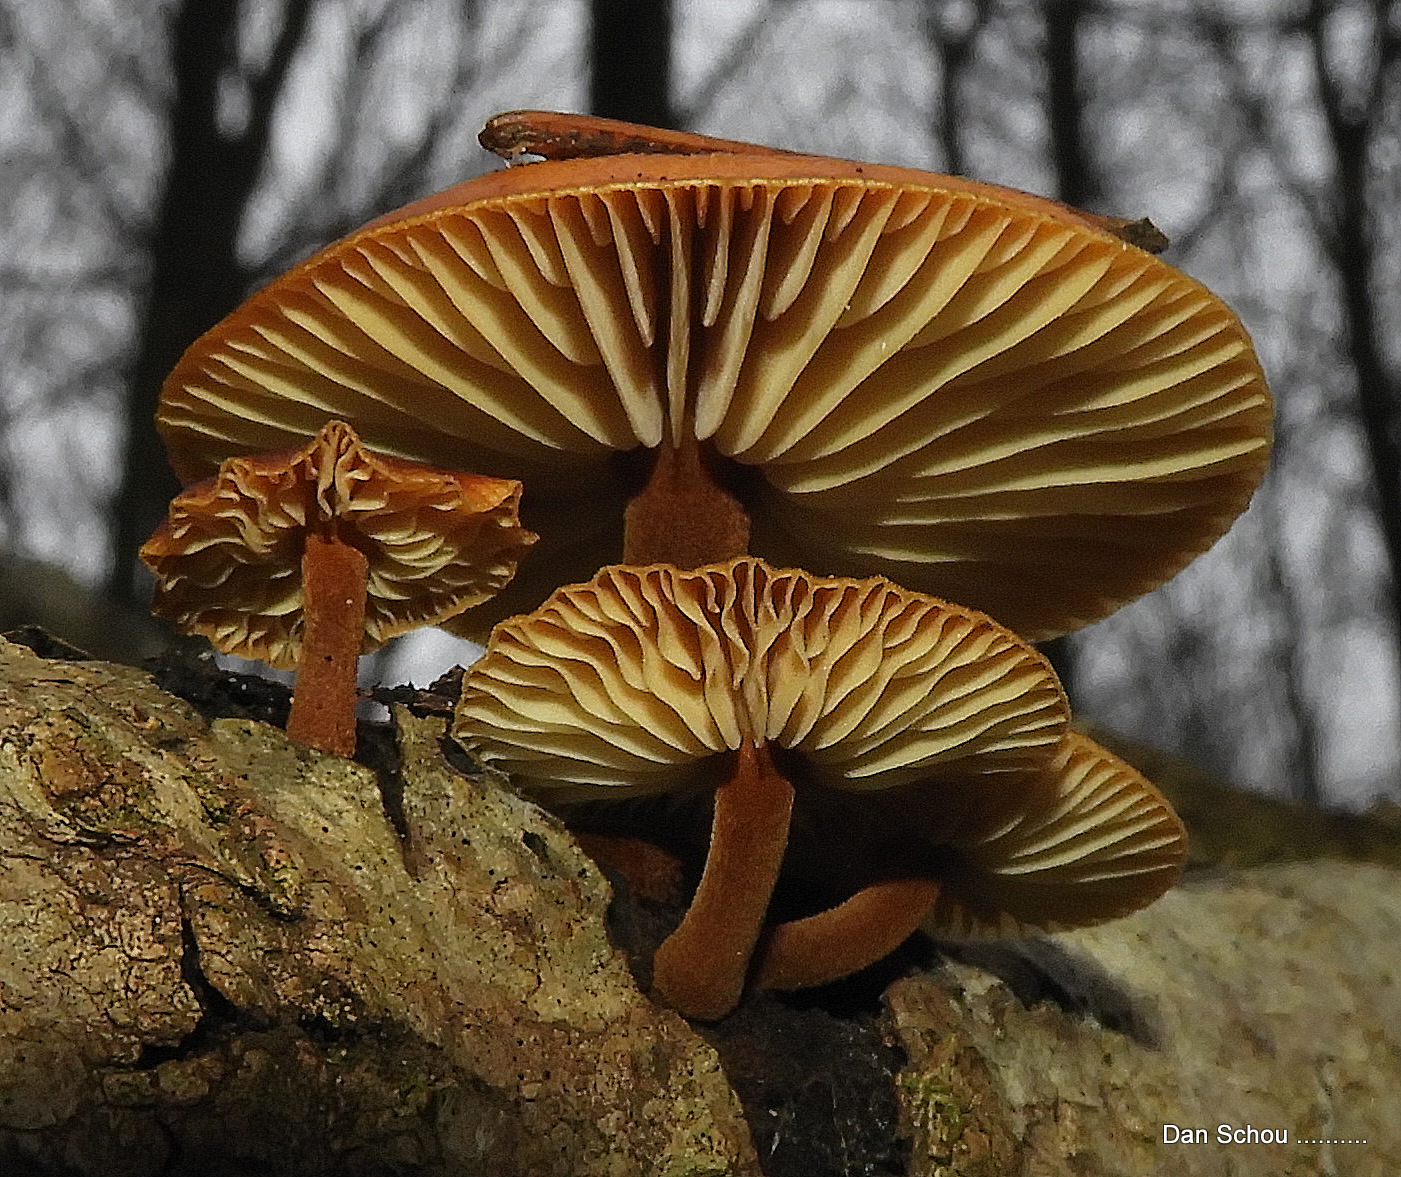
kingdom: Fungi
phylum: Basidiomycota
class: Agaricomycetes
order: Agaricales
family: Physalacriaceae
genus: Flammulina
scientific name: Flammulina
